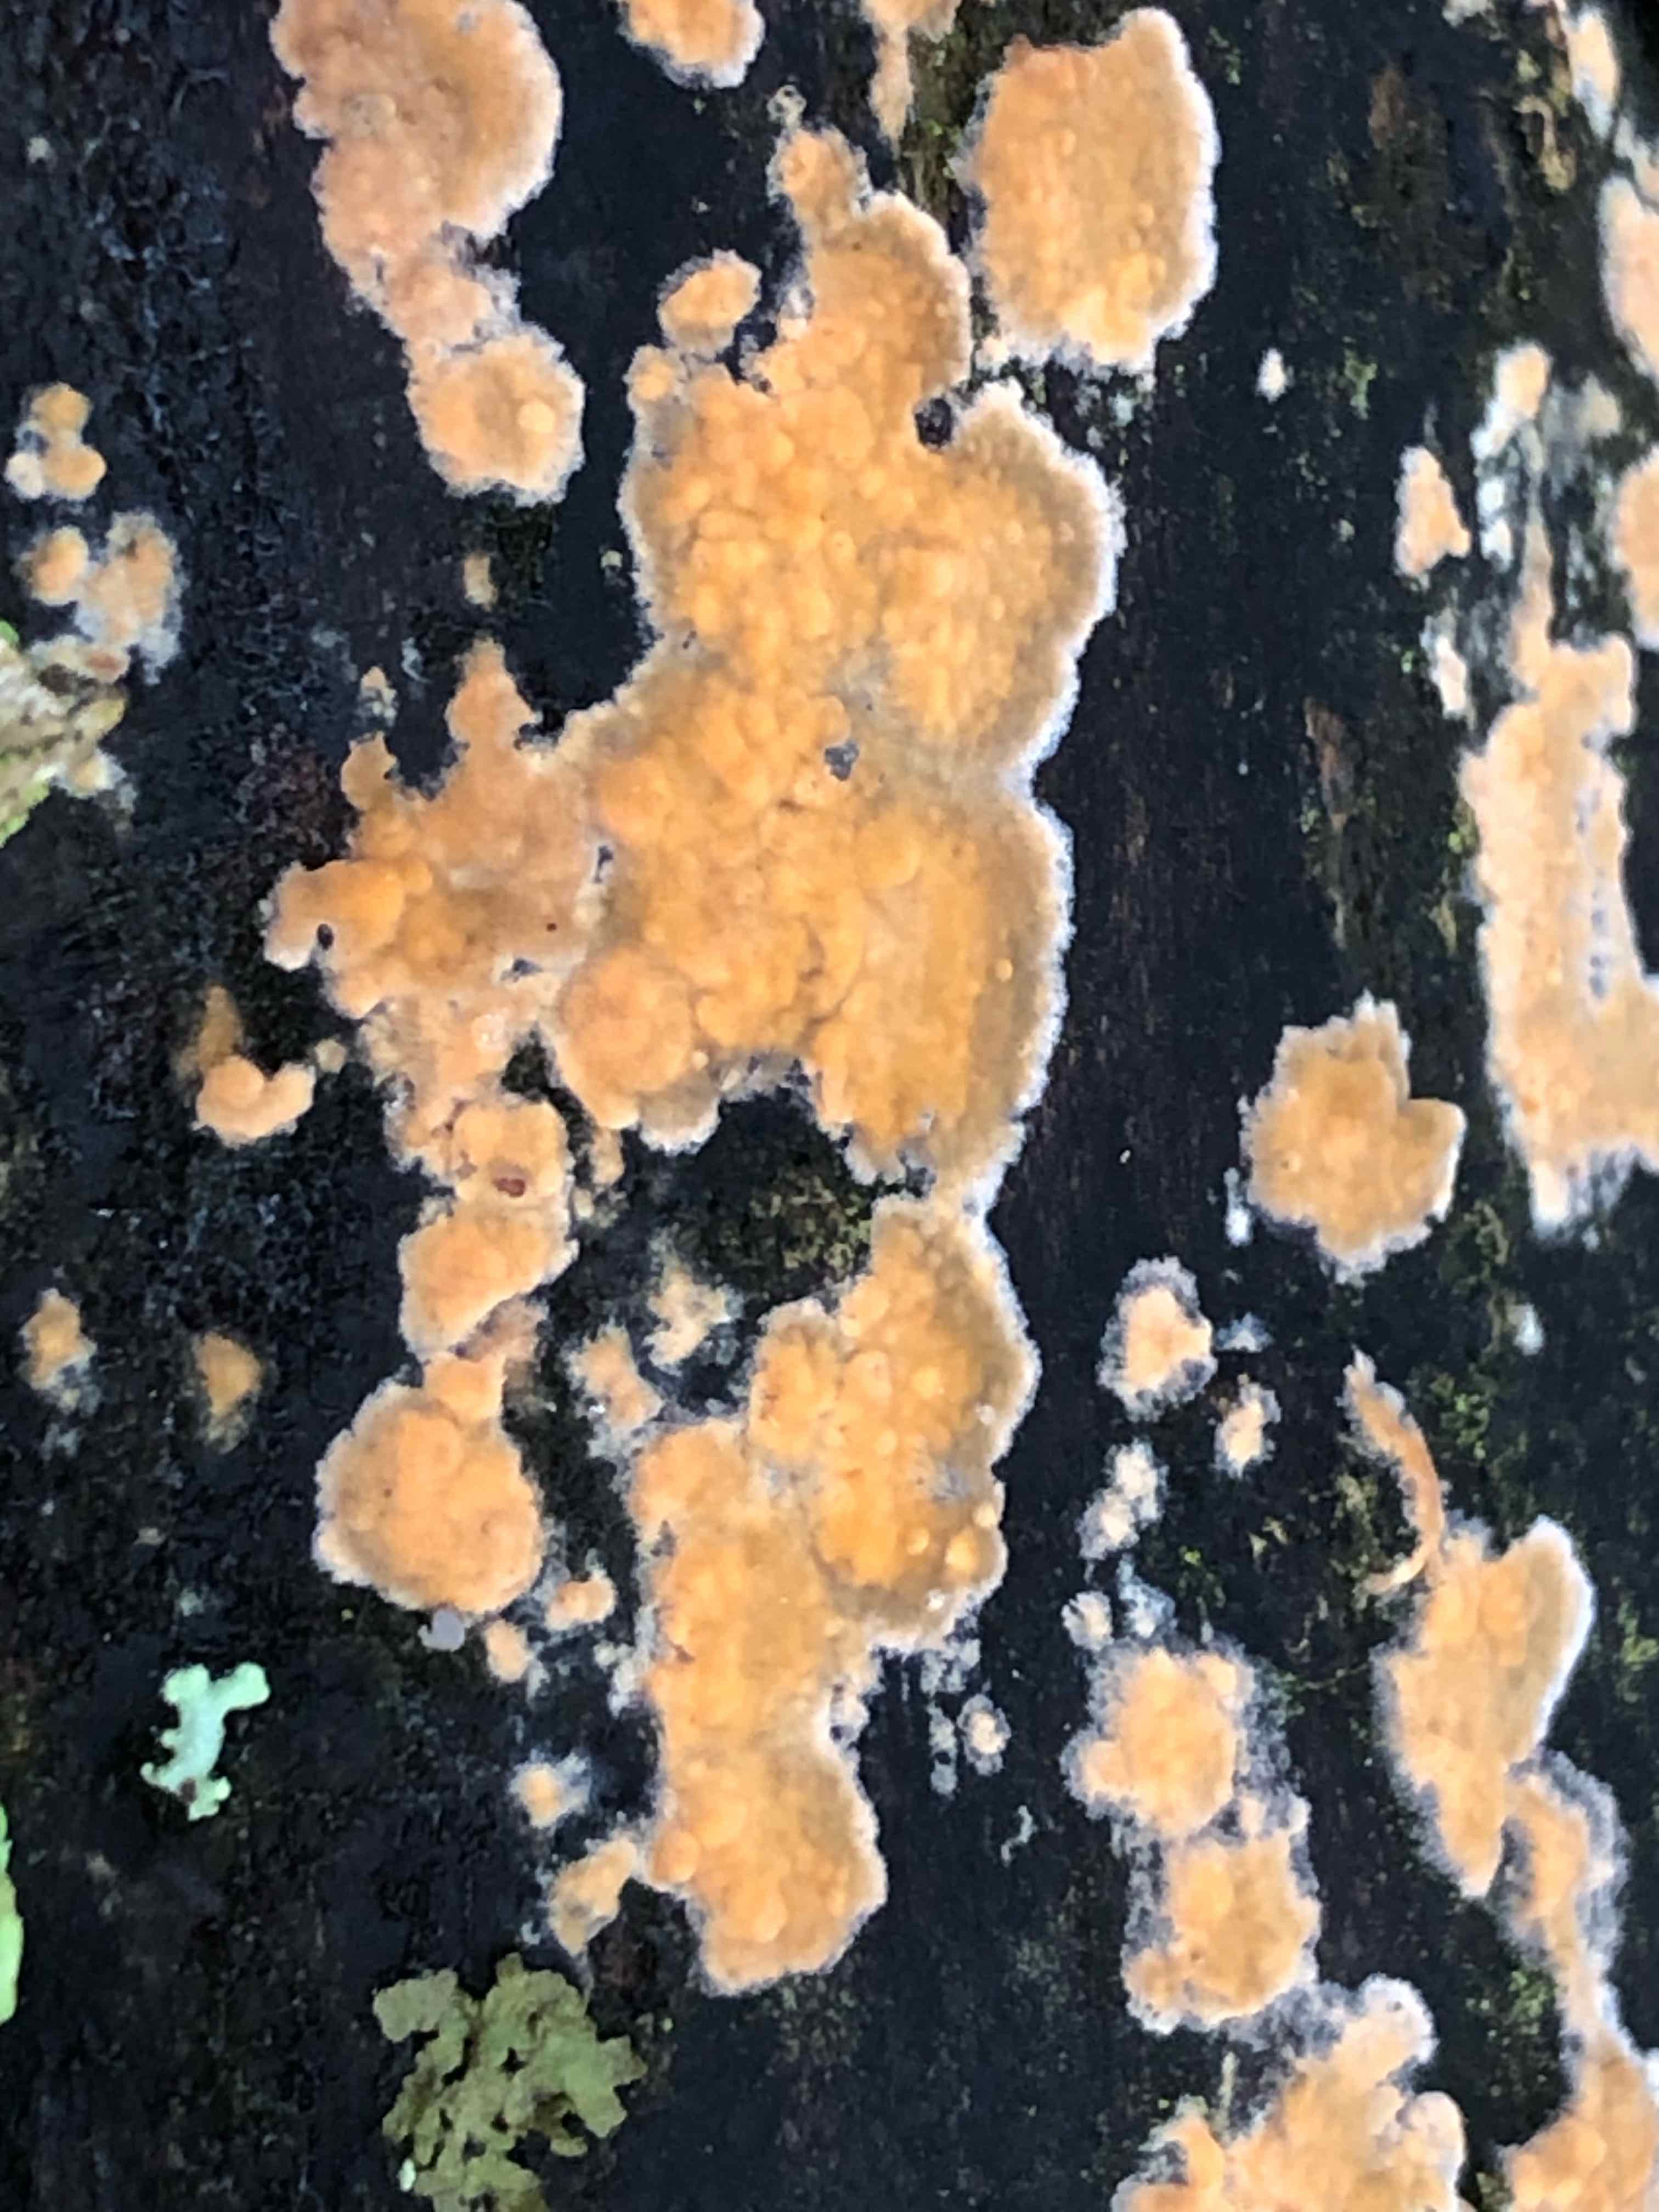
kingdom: Fungi
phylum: Basidiomycota
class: Agaricomycetes
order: Russulales
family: Peniophoraceae
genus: Peniophora
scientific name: Peniophora incarnata
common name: laksefarvet voksskind
